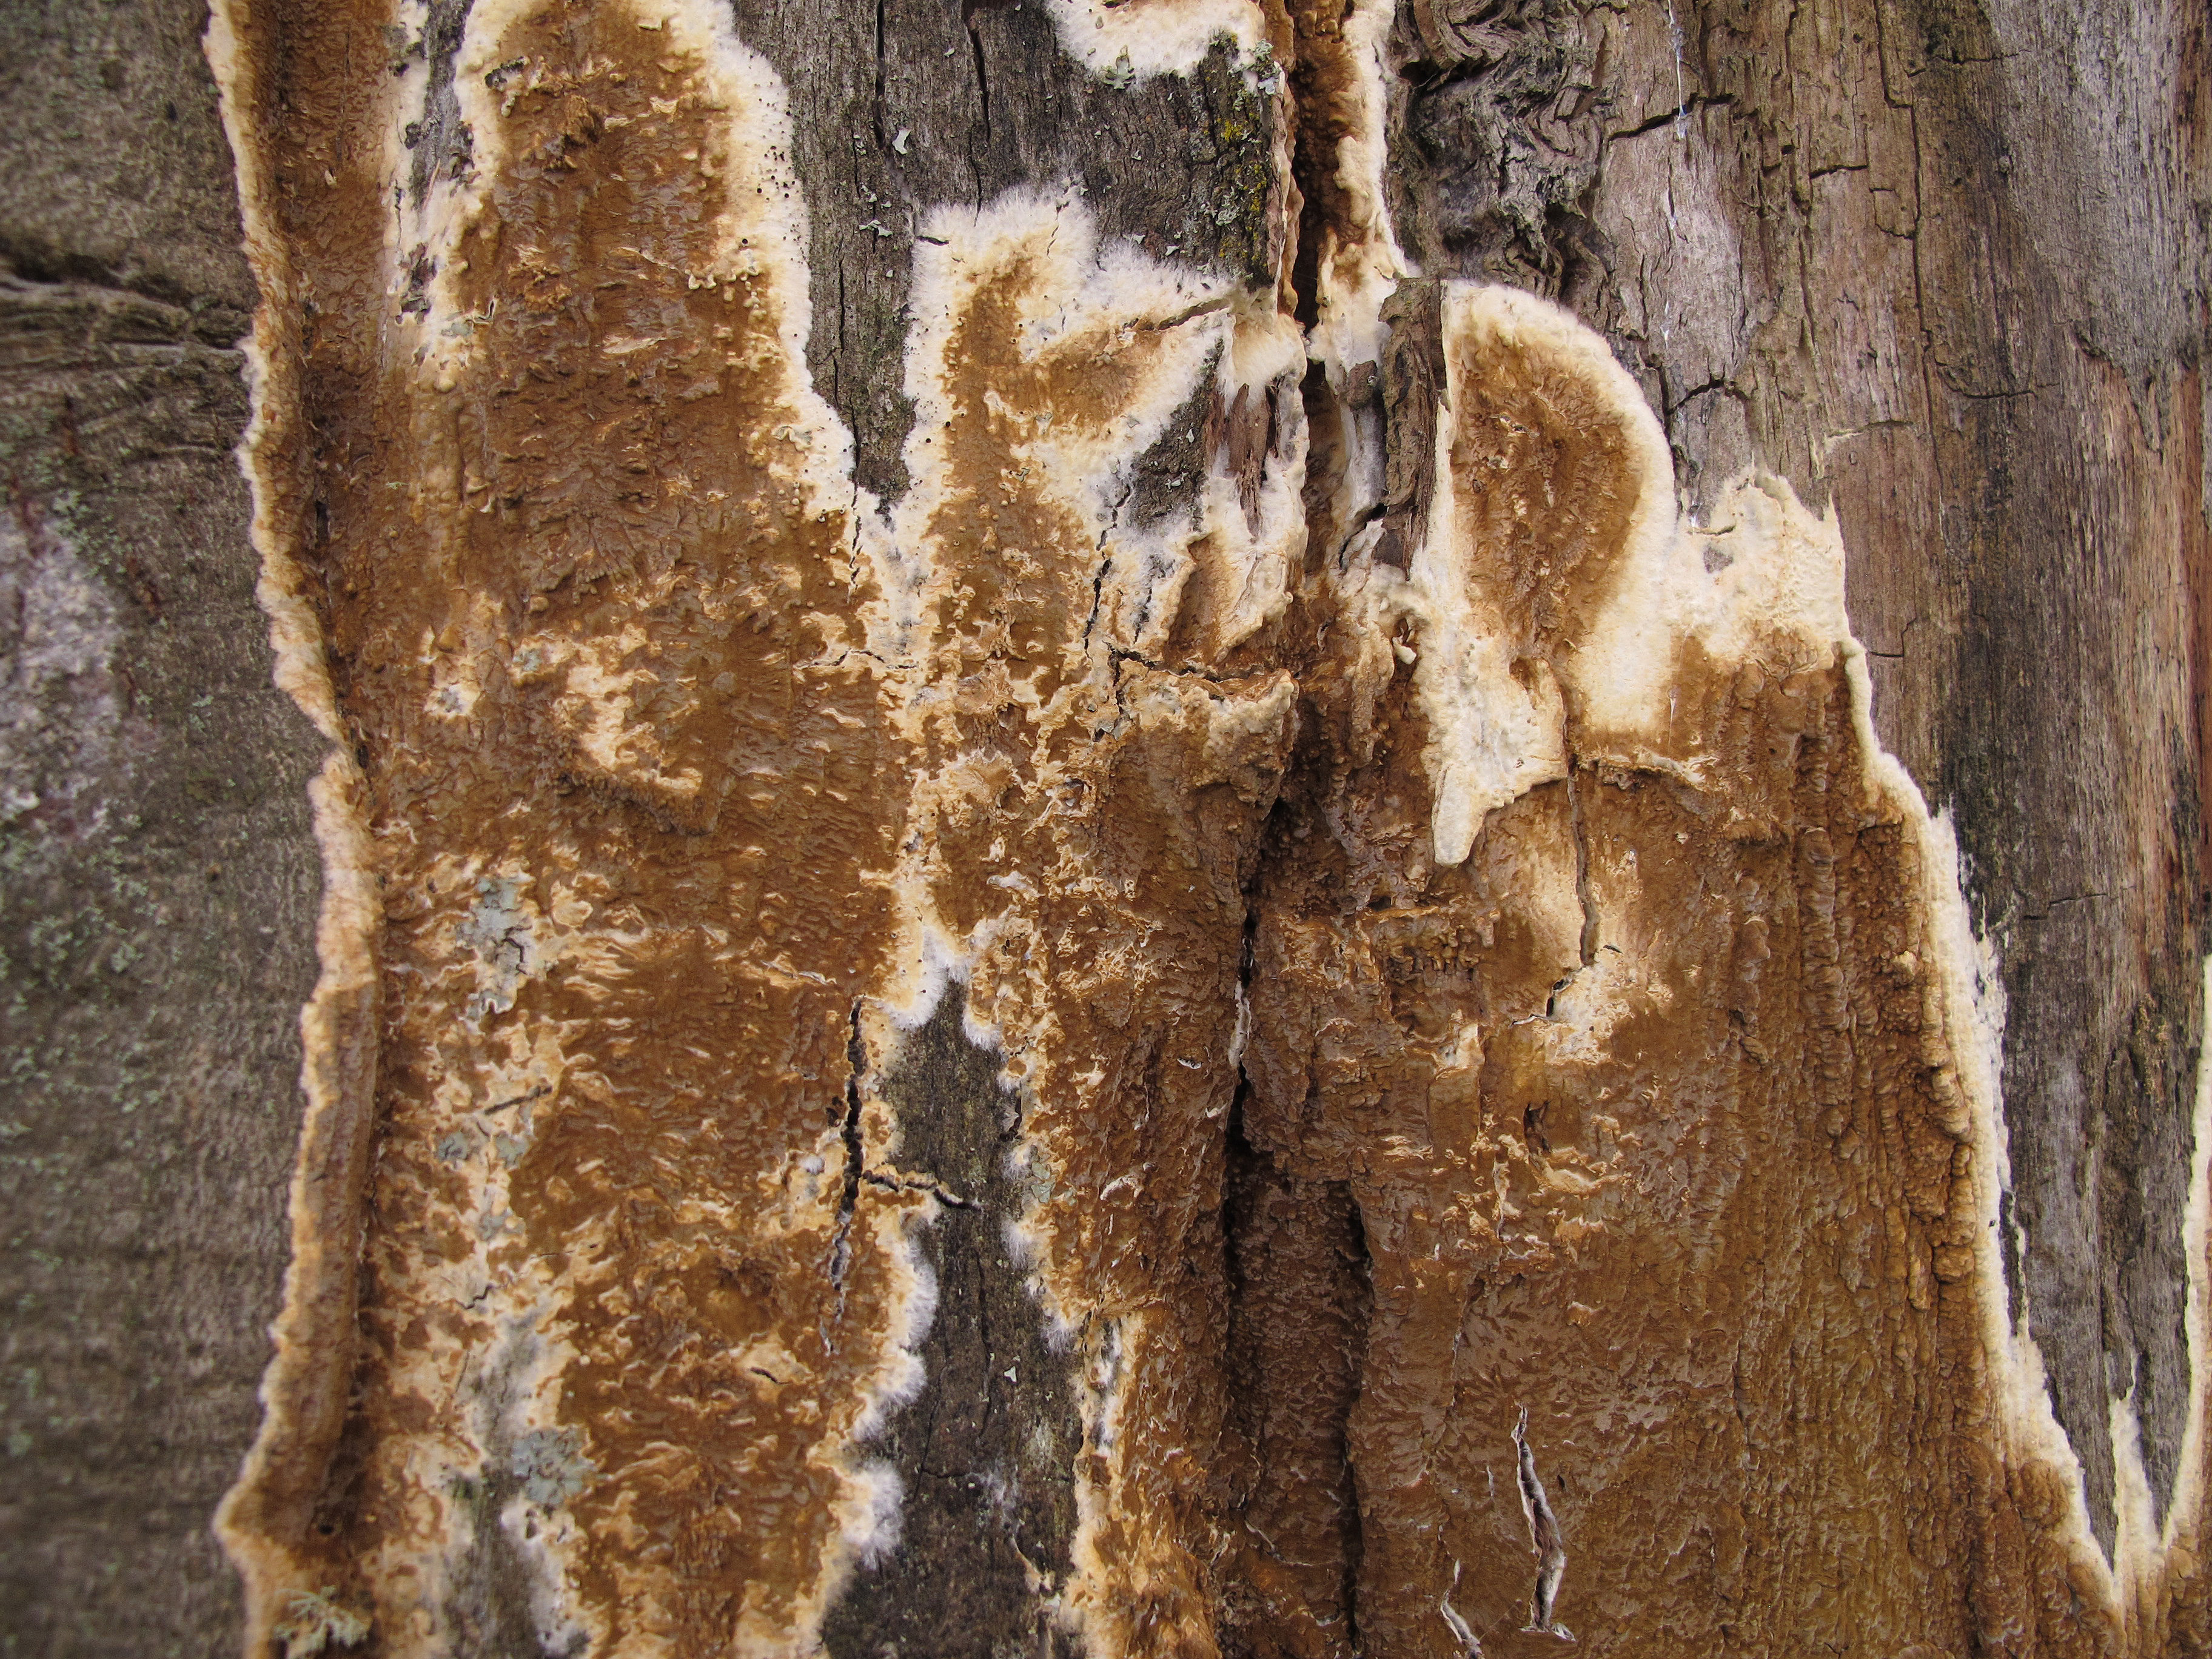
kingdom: Fungi
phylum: Basidiomycota
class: Agaricomycetes
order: Boletales
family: Serpulaceae
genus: Serpula
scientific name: Serpula himantioides
